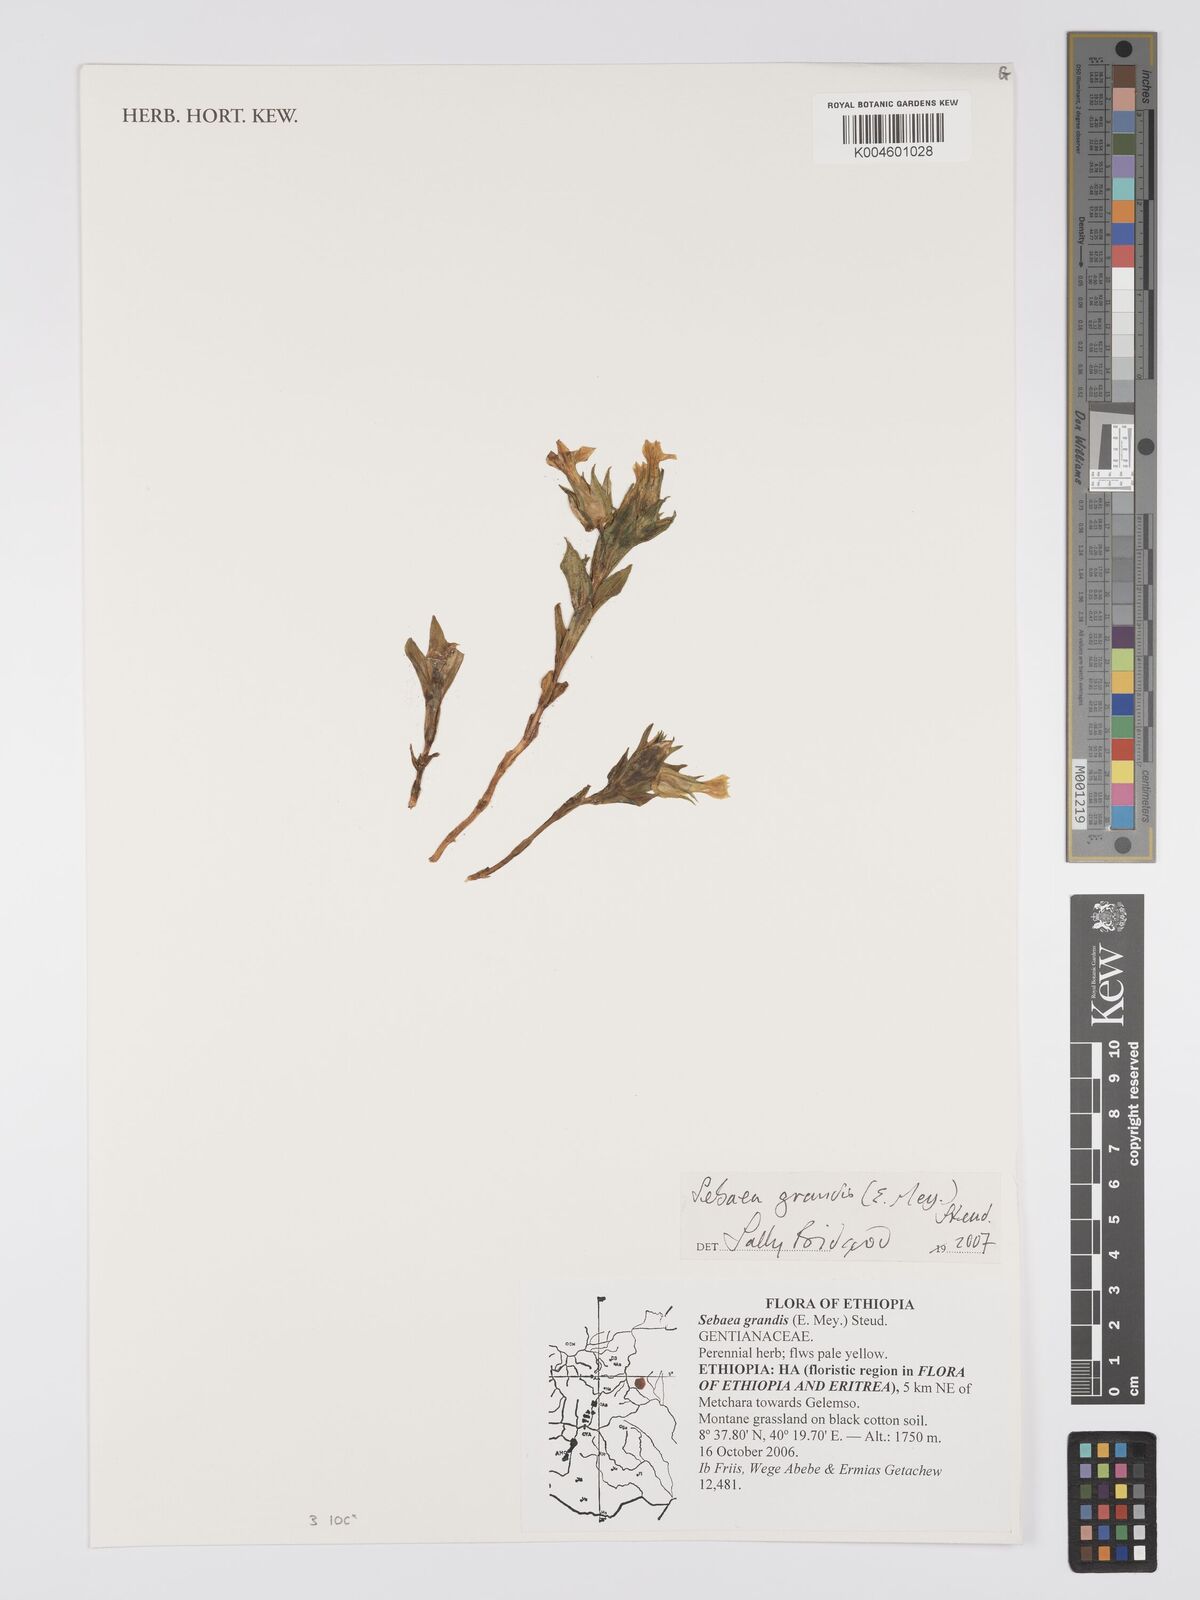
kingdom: Plantae
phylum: Tracheophyta
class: Magnoliopsida
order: Gentianales
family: Gentianaceae
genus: Exochaenium
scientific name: Exochaenium grande
